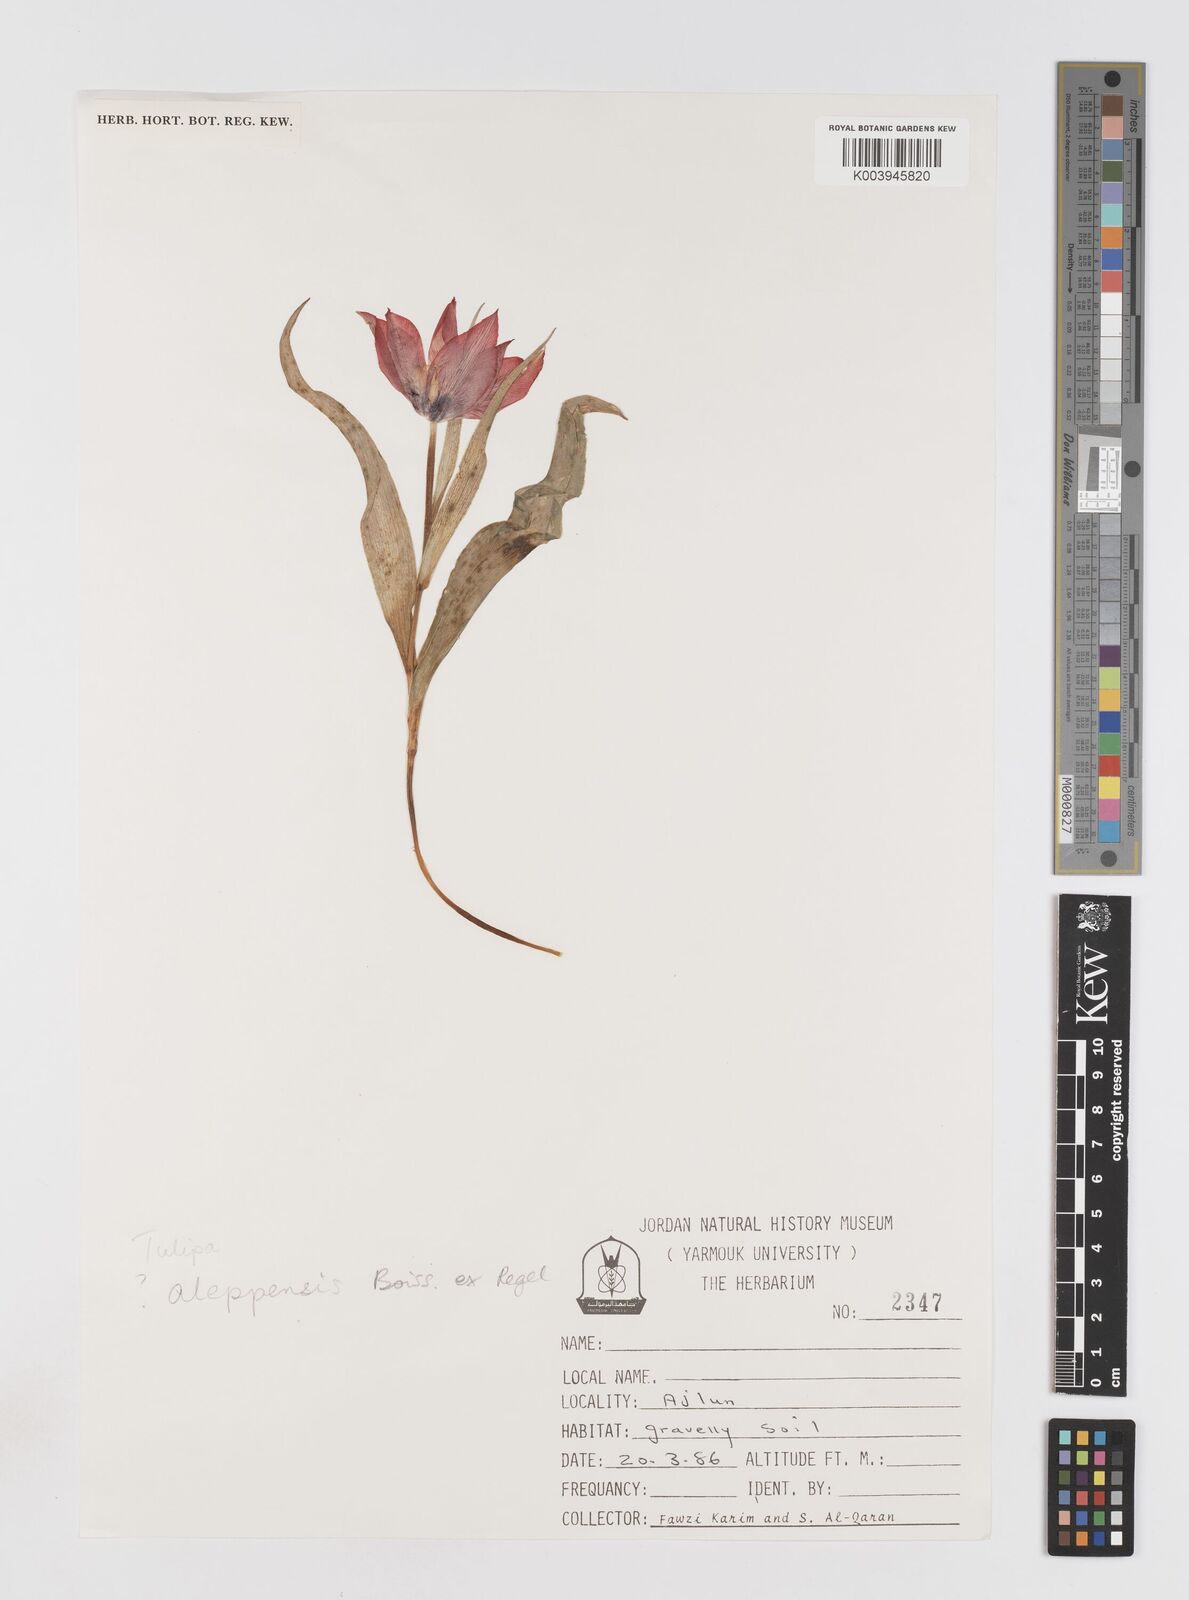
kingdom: Plantae
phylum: Tracheophyta
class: Liliopsida
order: Liliales
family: Liliaceae
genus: Tulipa
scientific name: Tulipa aleppensis
